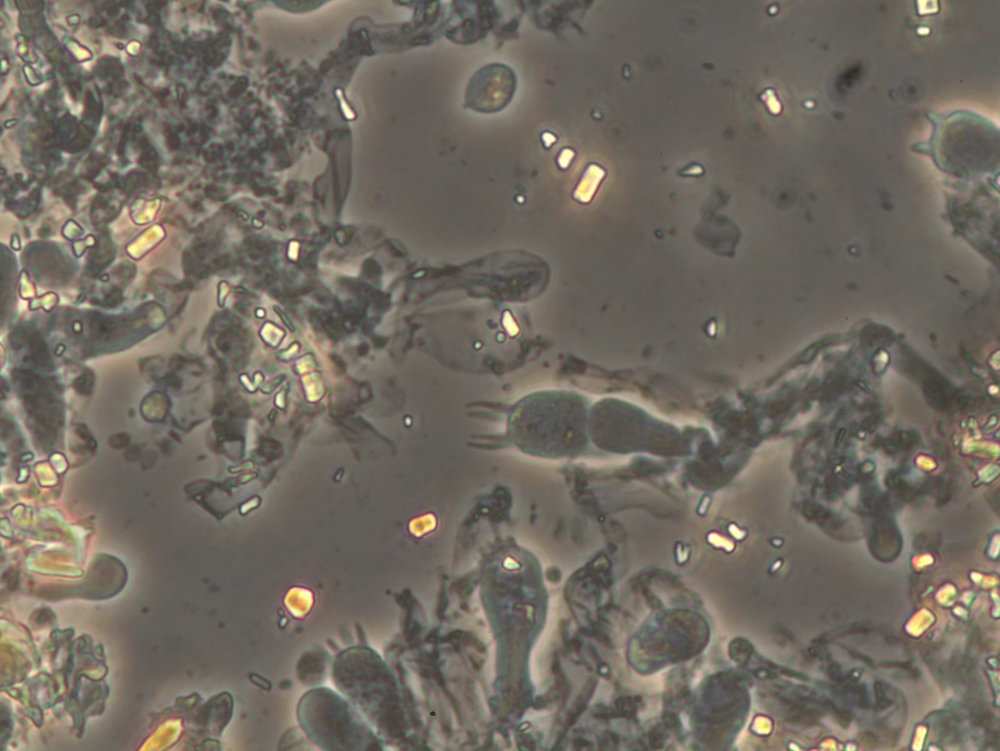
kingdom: Fungi
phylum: Basidiomycota
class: Agaricomycetes
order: Atheliales
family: Atheliaceae
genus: Athelia
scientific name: Athelia neuhoffii
